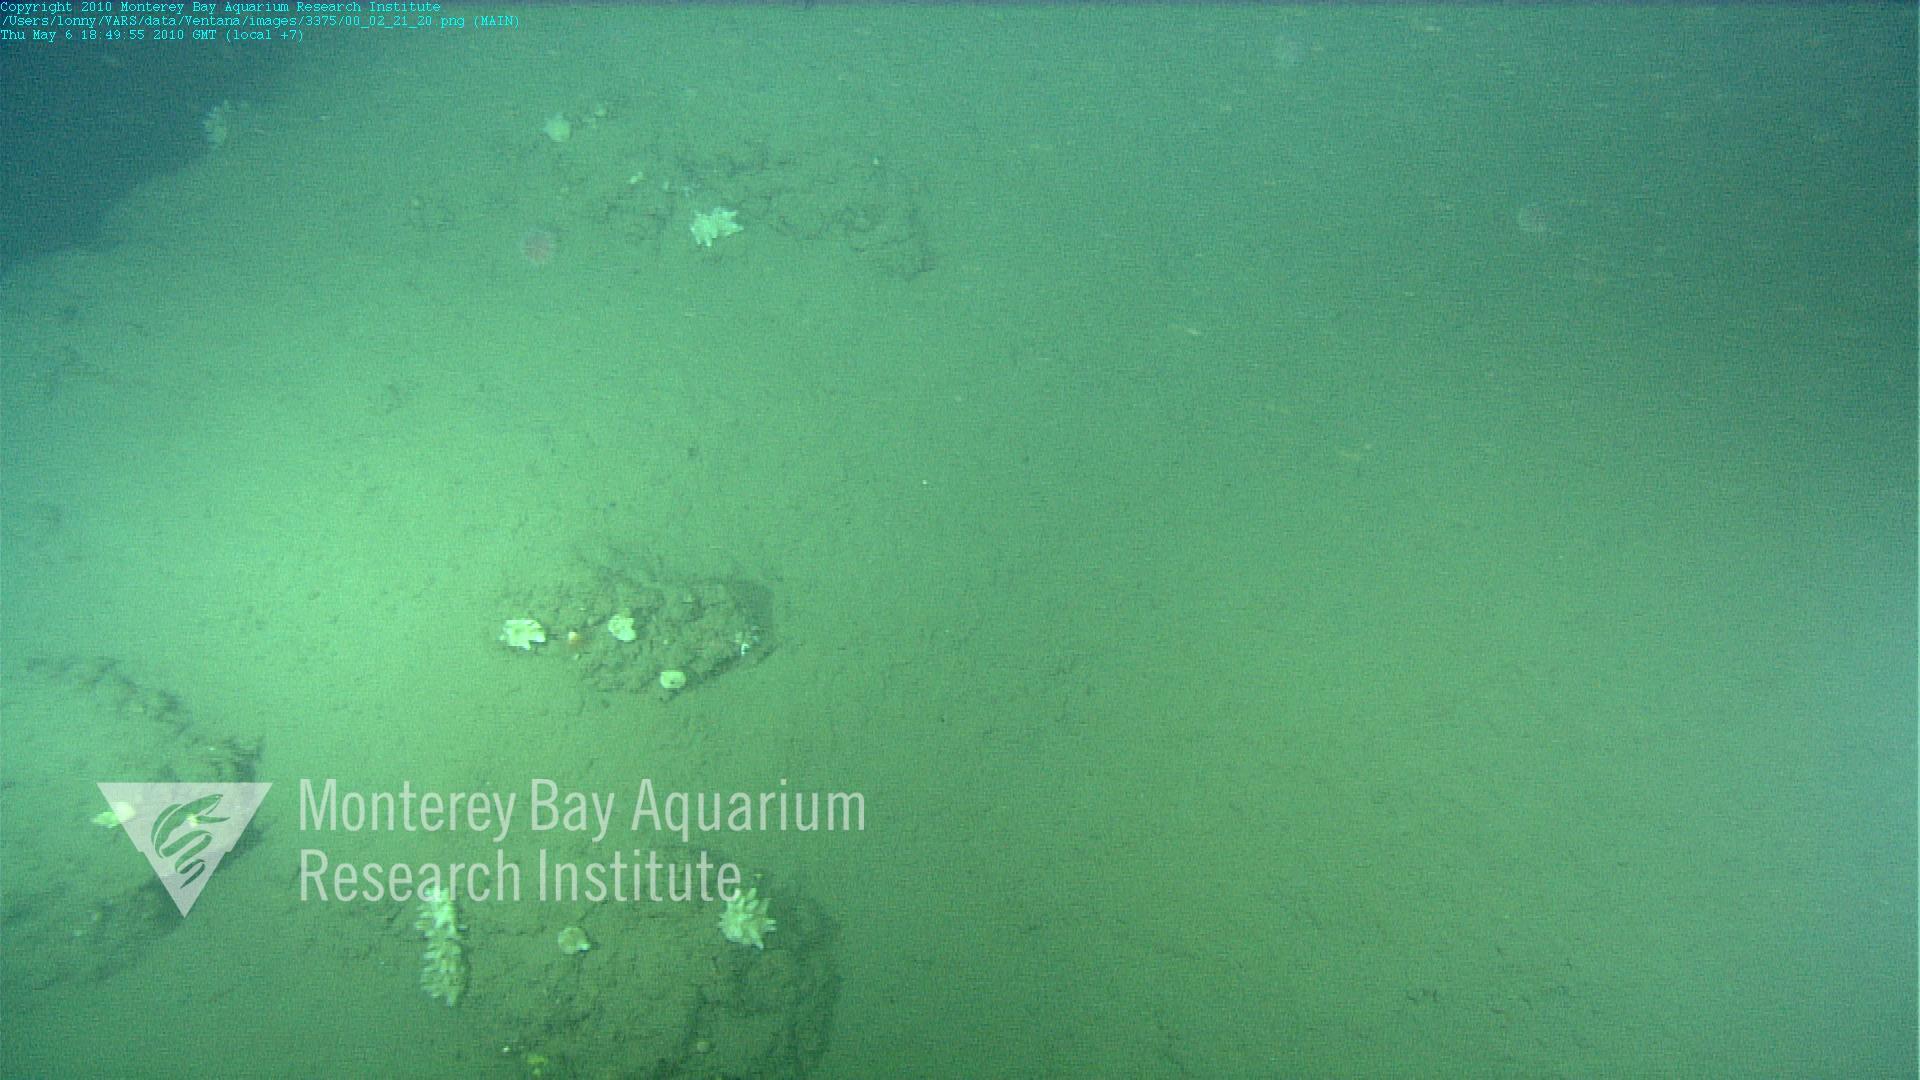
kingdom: Animalia
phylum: Porifera
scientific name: Porifera
